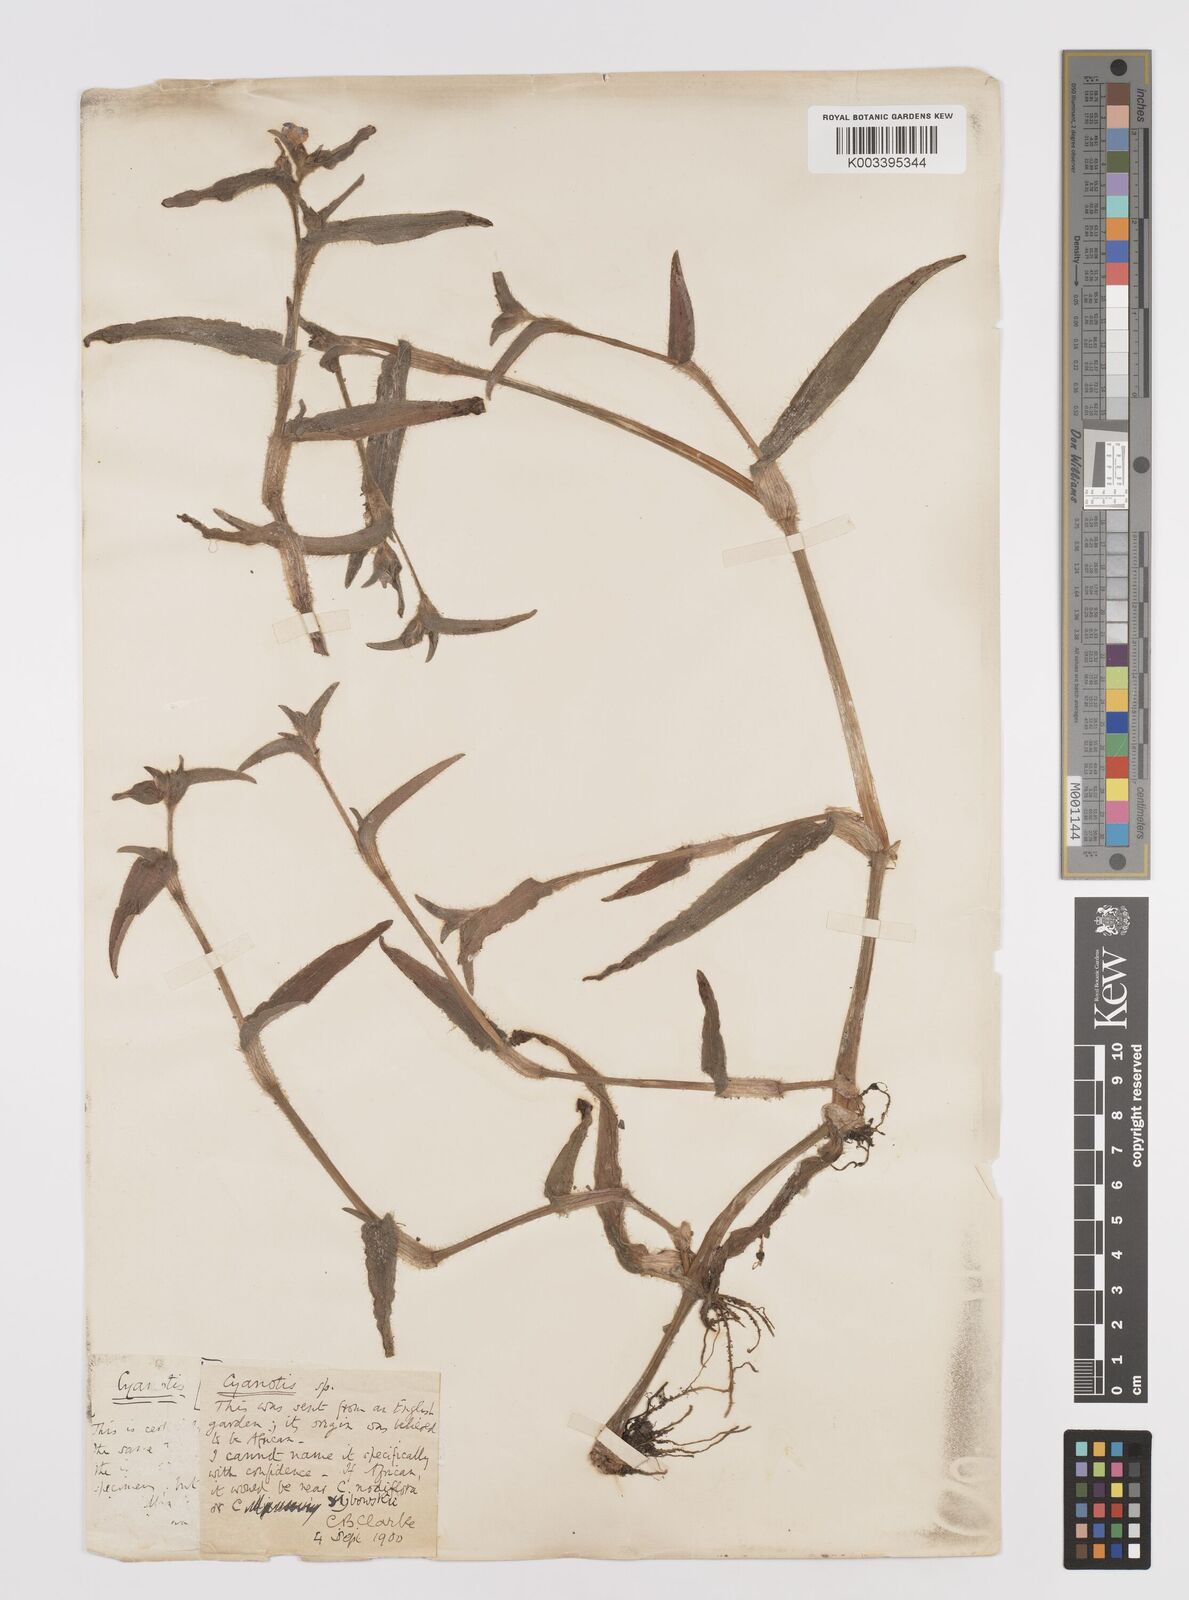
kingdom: Plantae
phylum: Tracheophyta
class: Liliopsida
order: Commelinales
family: Commelinaceae
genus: Cyanotis
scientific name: Cyanotis
